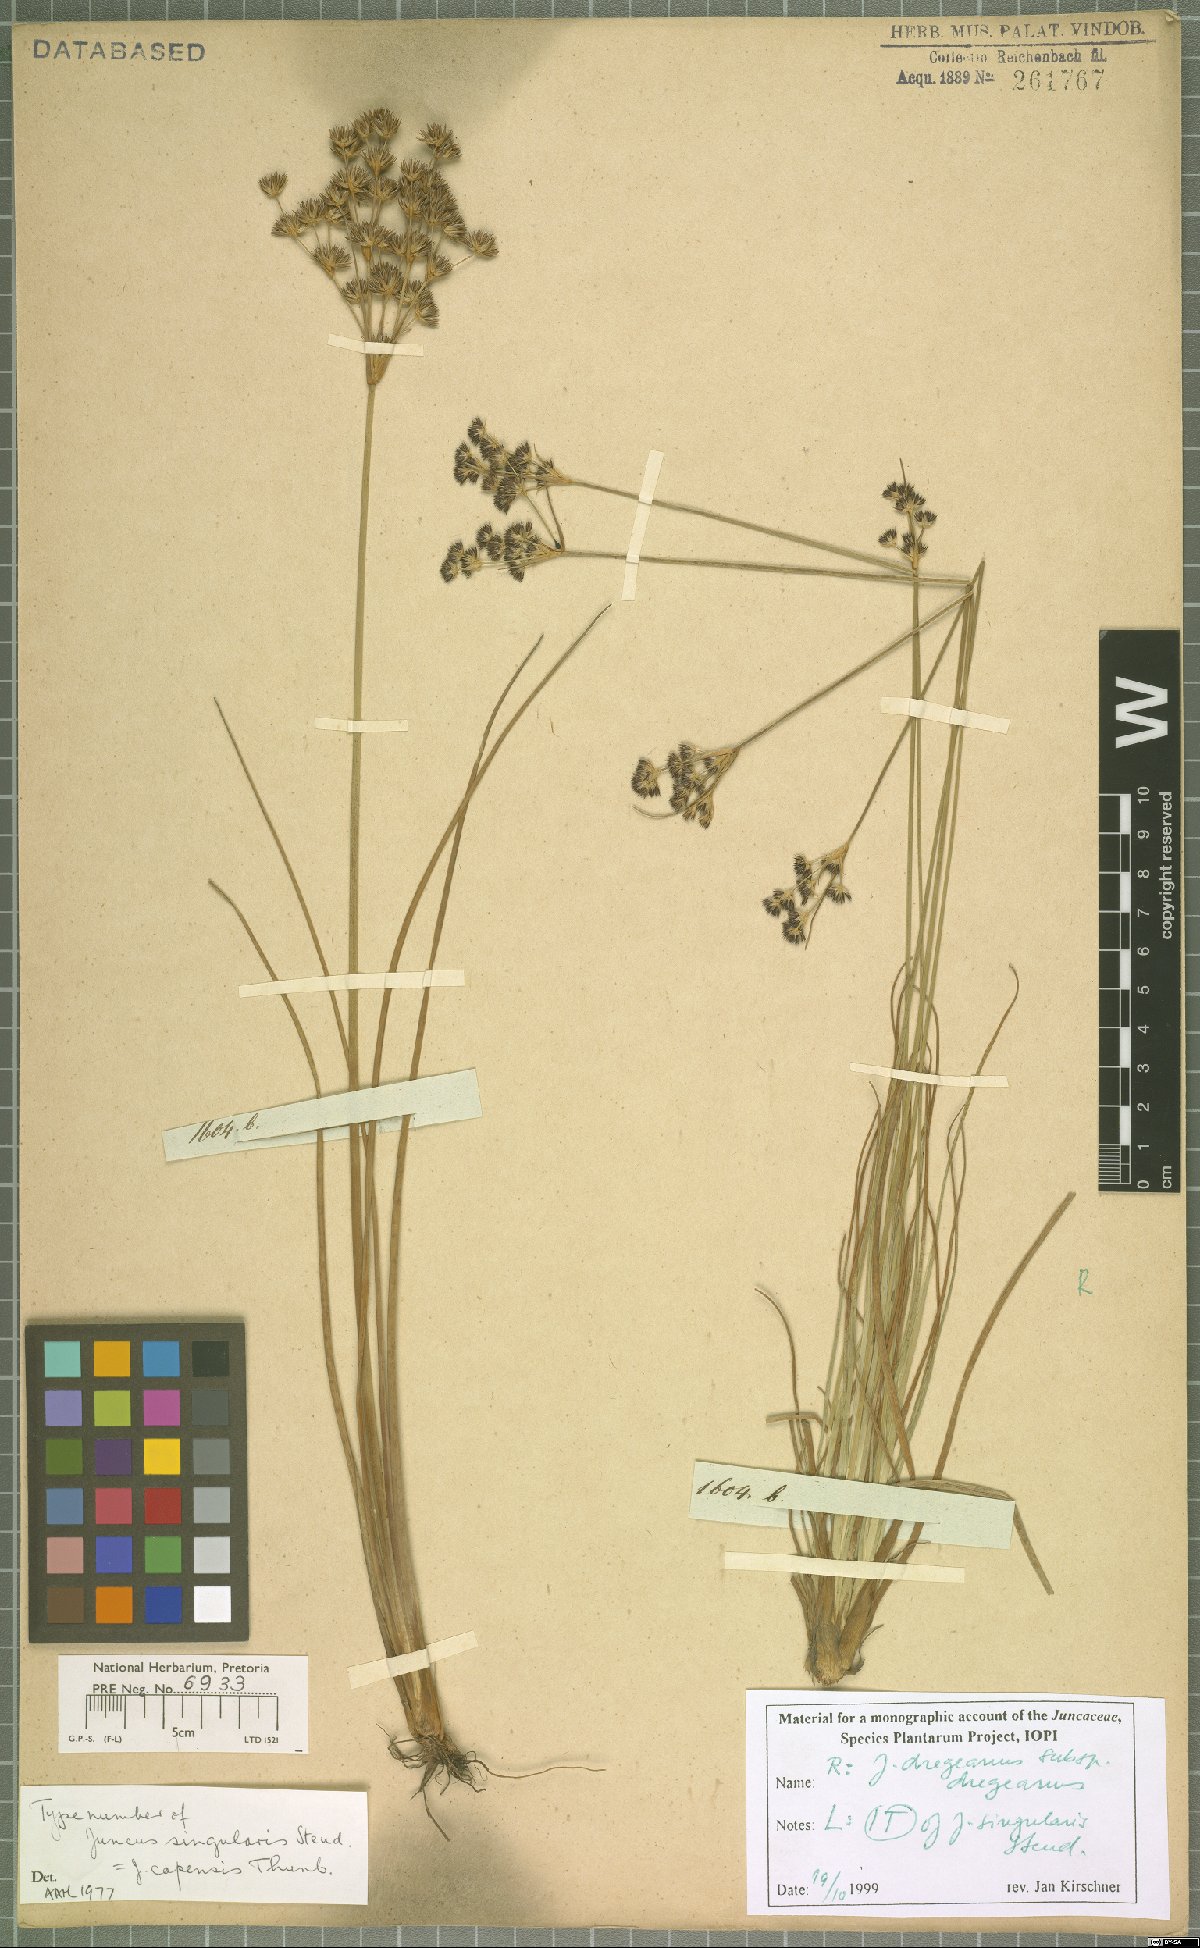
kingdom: Plantae
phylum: Tracheophyta
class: Liliopsida
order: Poales
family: Juncaceae
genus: Juncus
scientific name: Juncus capensis
